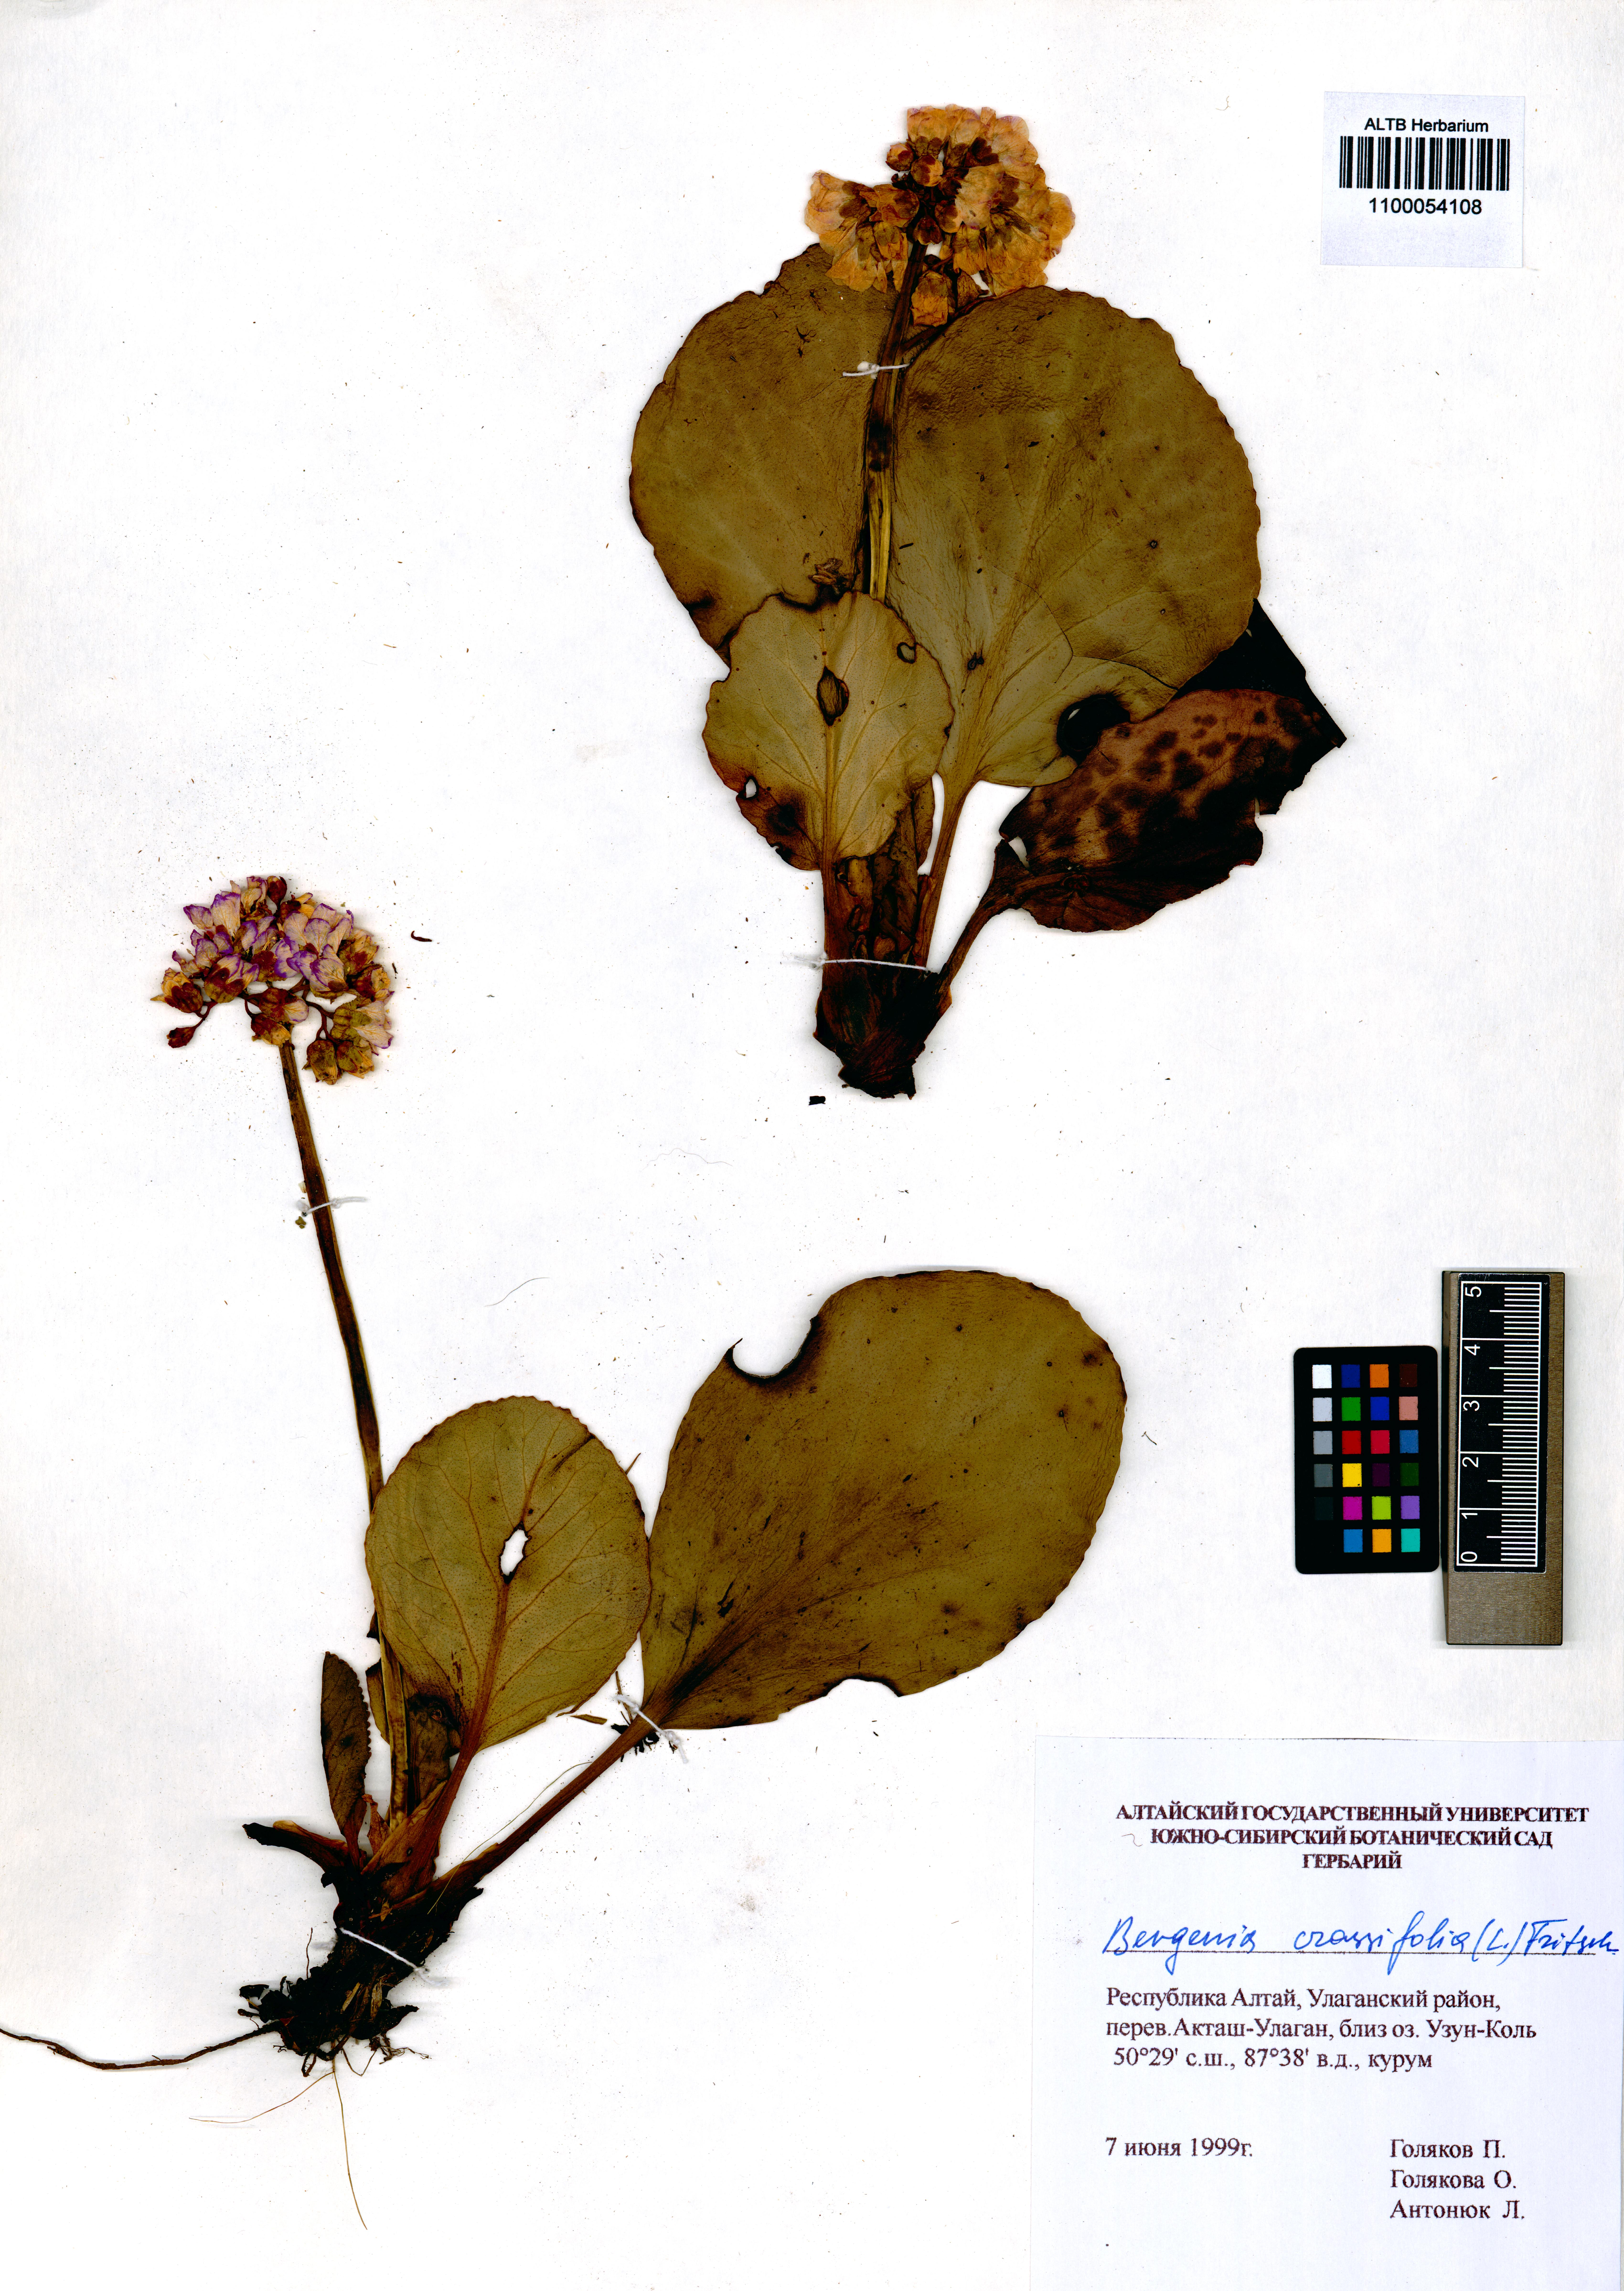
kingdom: Plantae
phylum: Tracheophyta
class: Magnoliopsida
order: Saxifragales
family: Saxifragaceae
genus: Bergenia
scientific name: Bergenia crassifolia
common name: Elephant-ears
